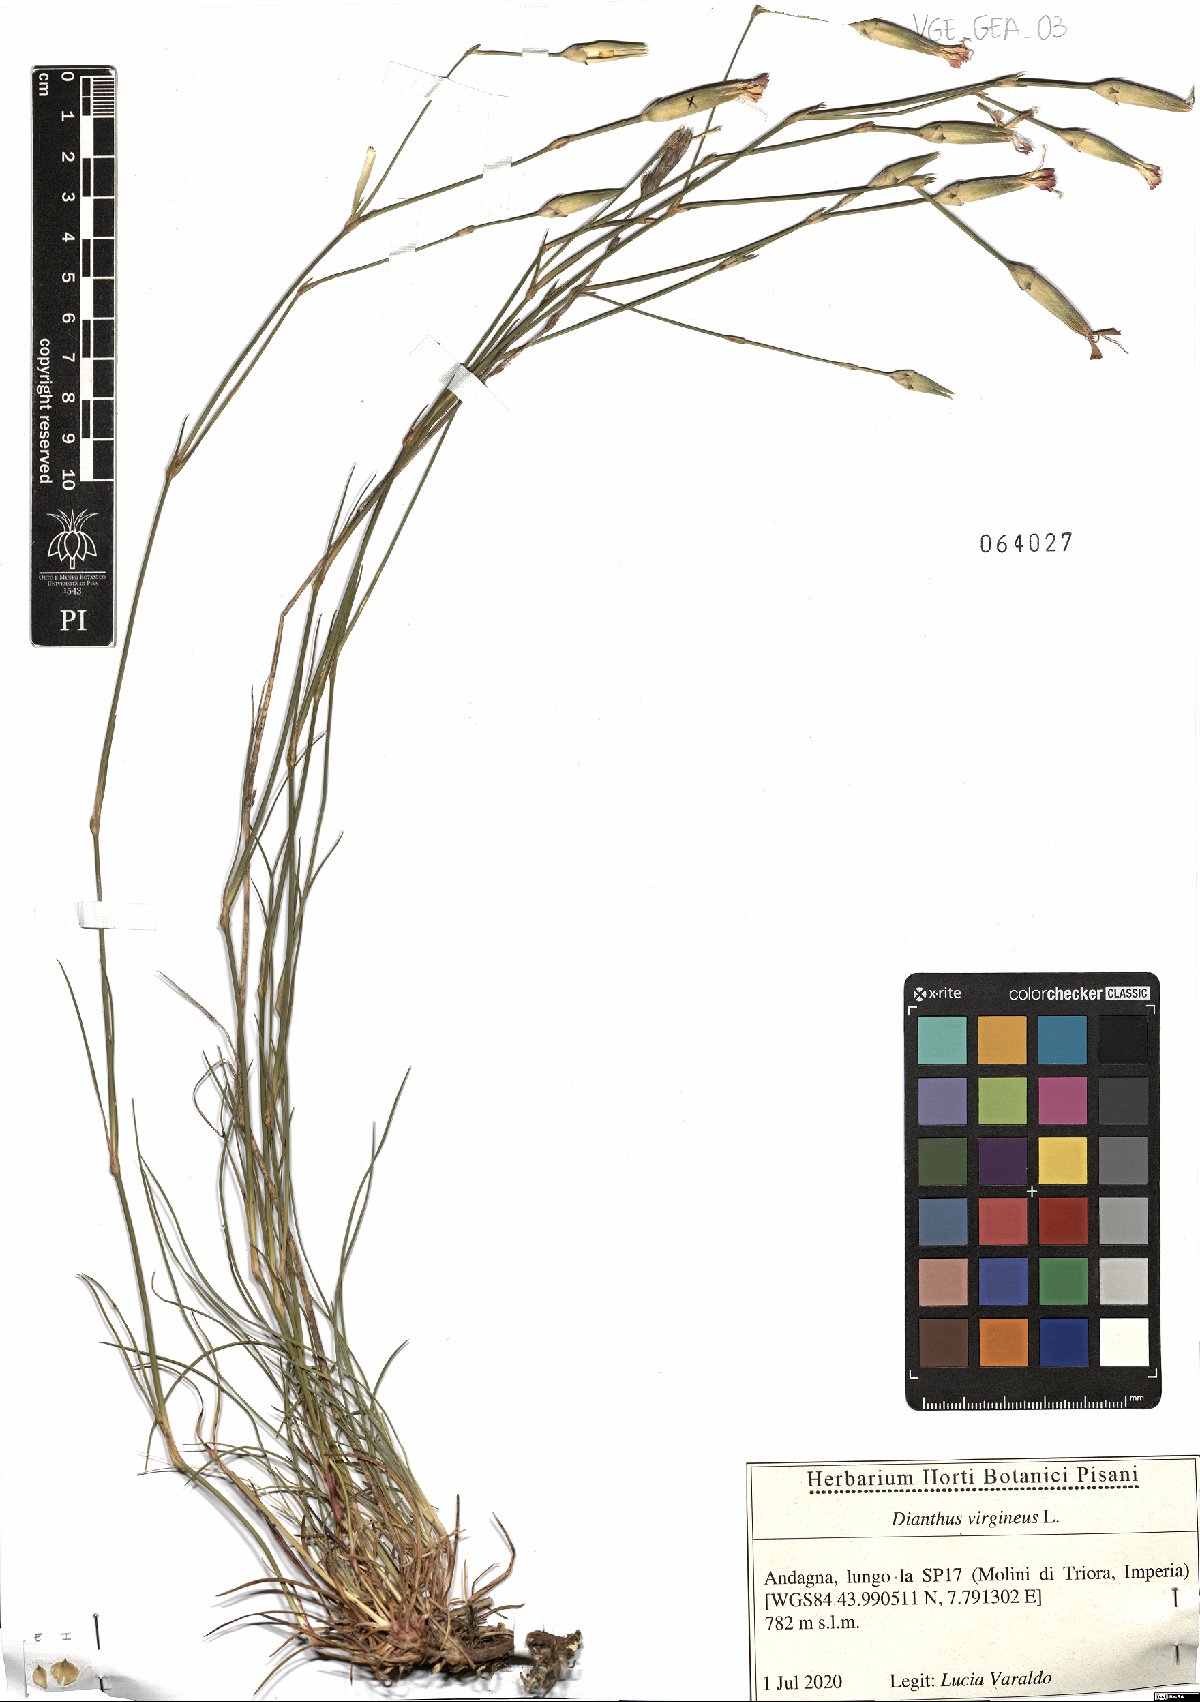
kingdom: Plantae
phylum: Tracheophyta
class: Magnoliopsida
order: Caryophyllales
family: Caryophyllaceae
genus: Dianthus
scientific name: Dianthus virgineus
